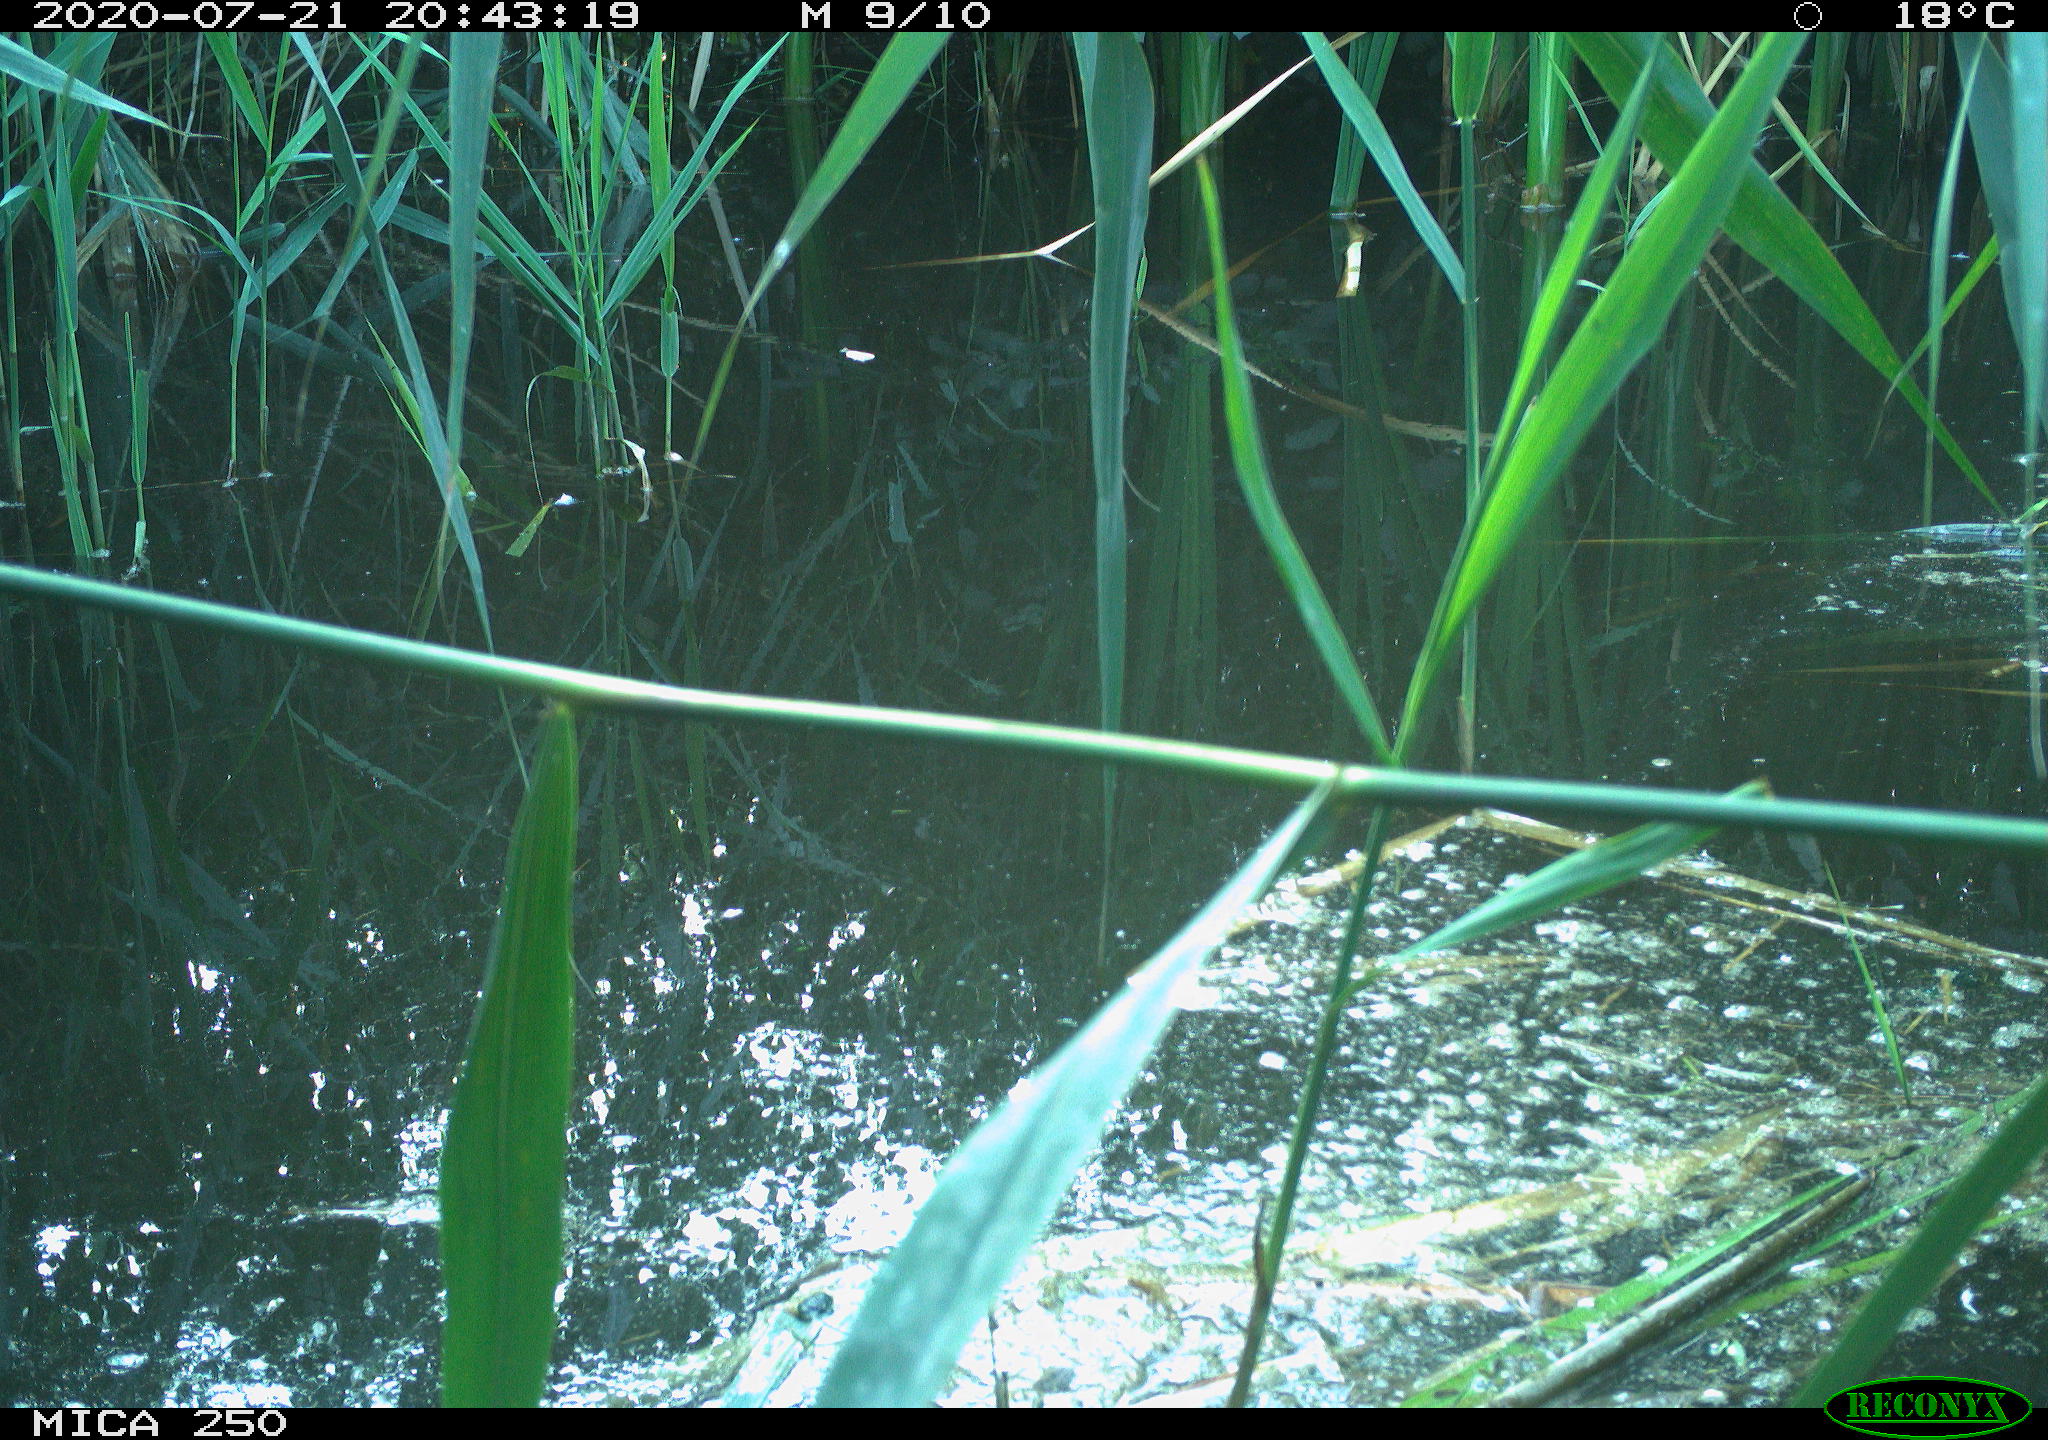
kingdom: Animalia
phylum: Chordata
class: Aves
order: Passeriformes
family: Acrocephalidae
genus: Acrocephalus
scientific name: Acrocephalus scirpaceus
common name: Eurasian reed warbler
